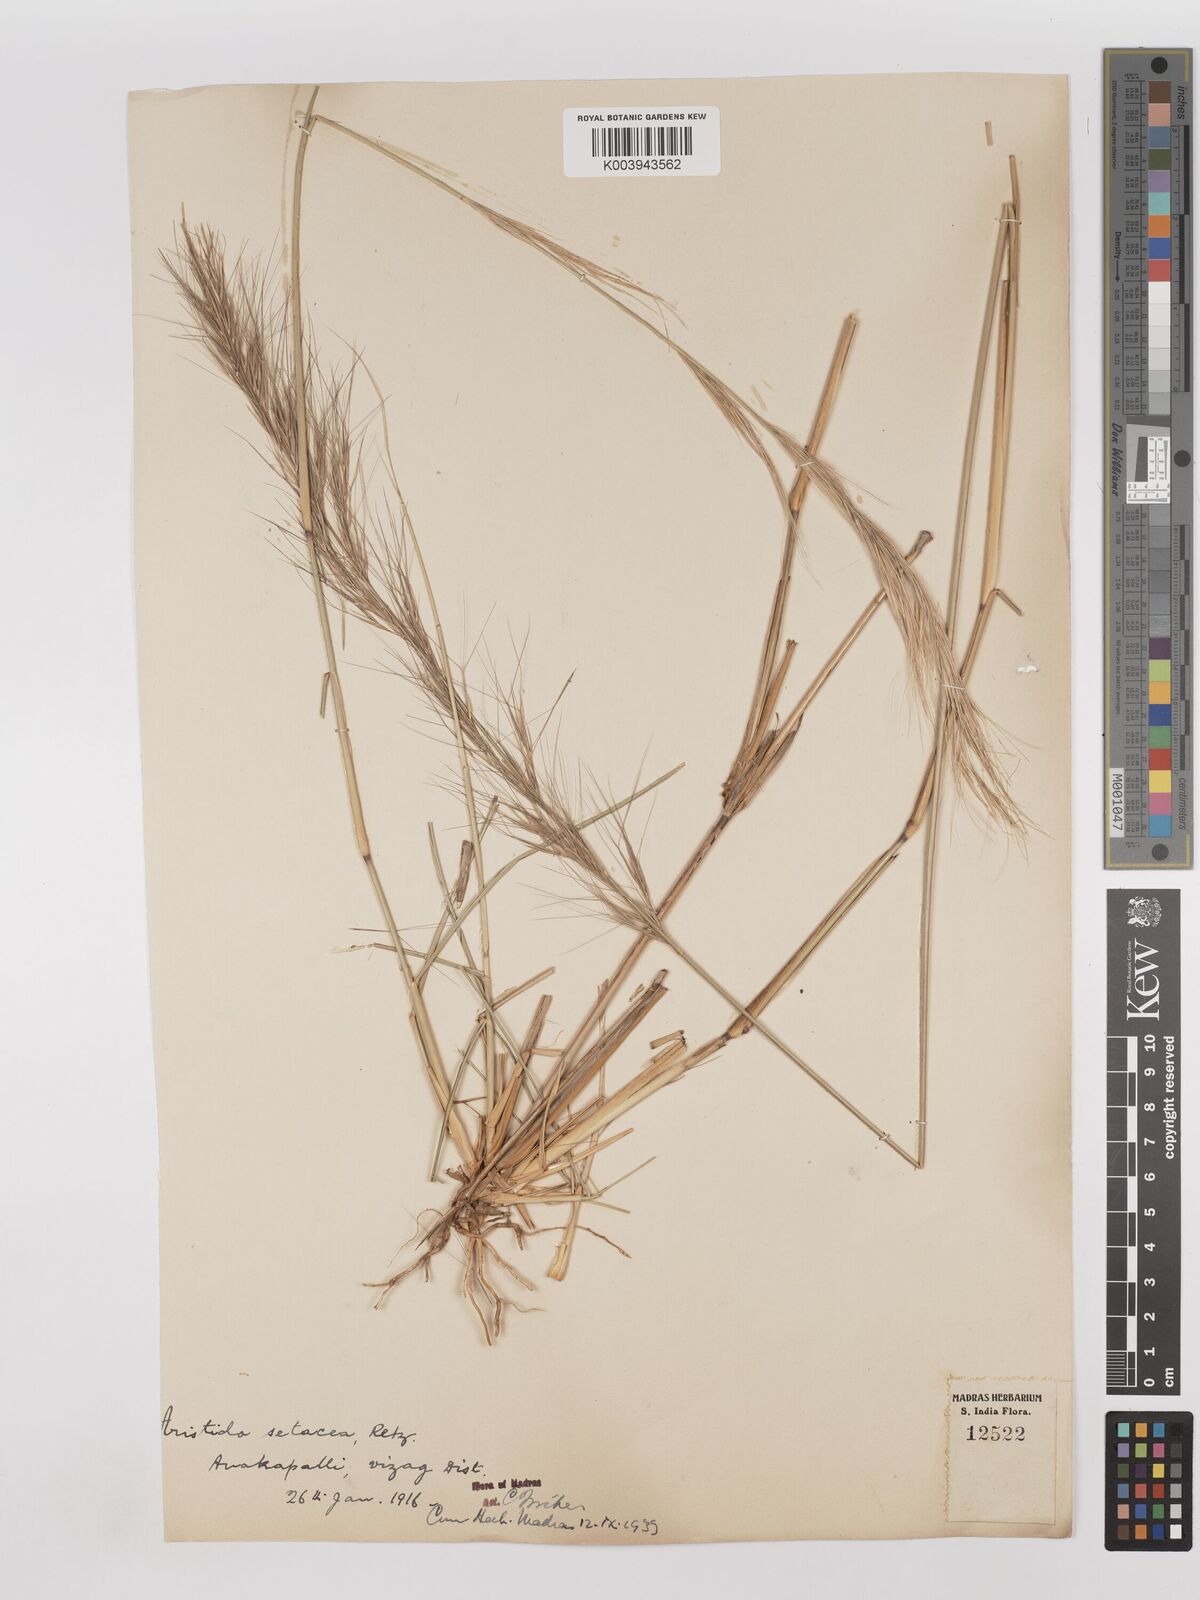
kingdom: Plantae
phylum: Tracheophyta
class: Liliopsida
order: Poales
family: Poaceae
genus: Aristida
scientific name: Aristida setacea
